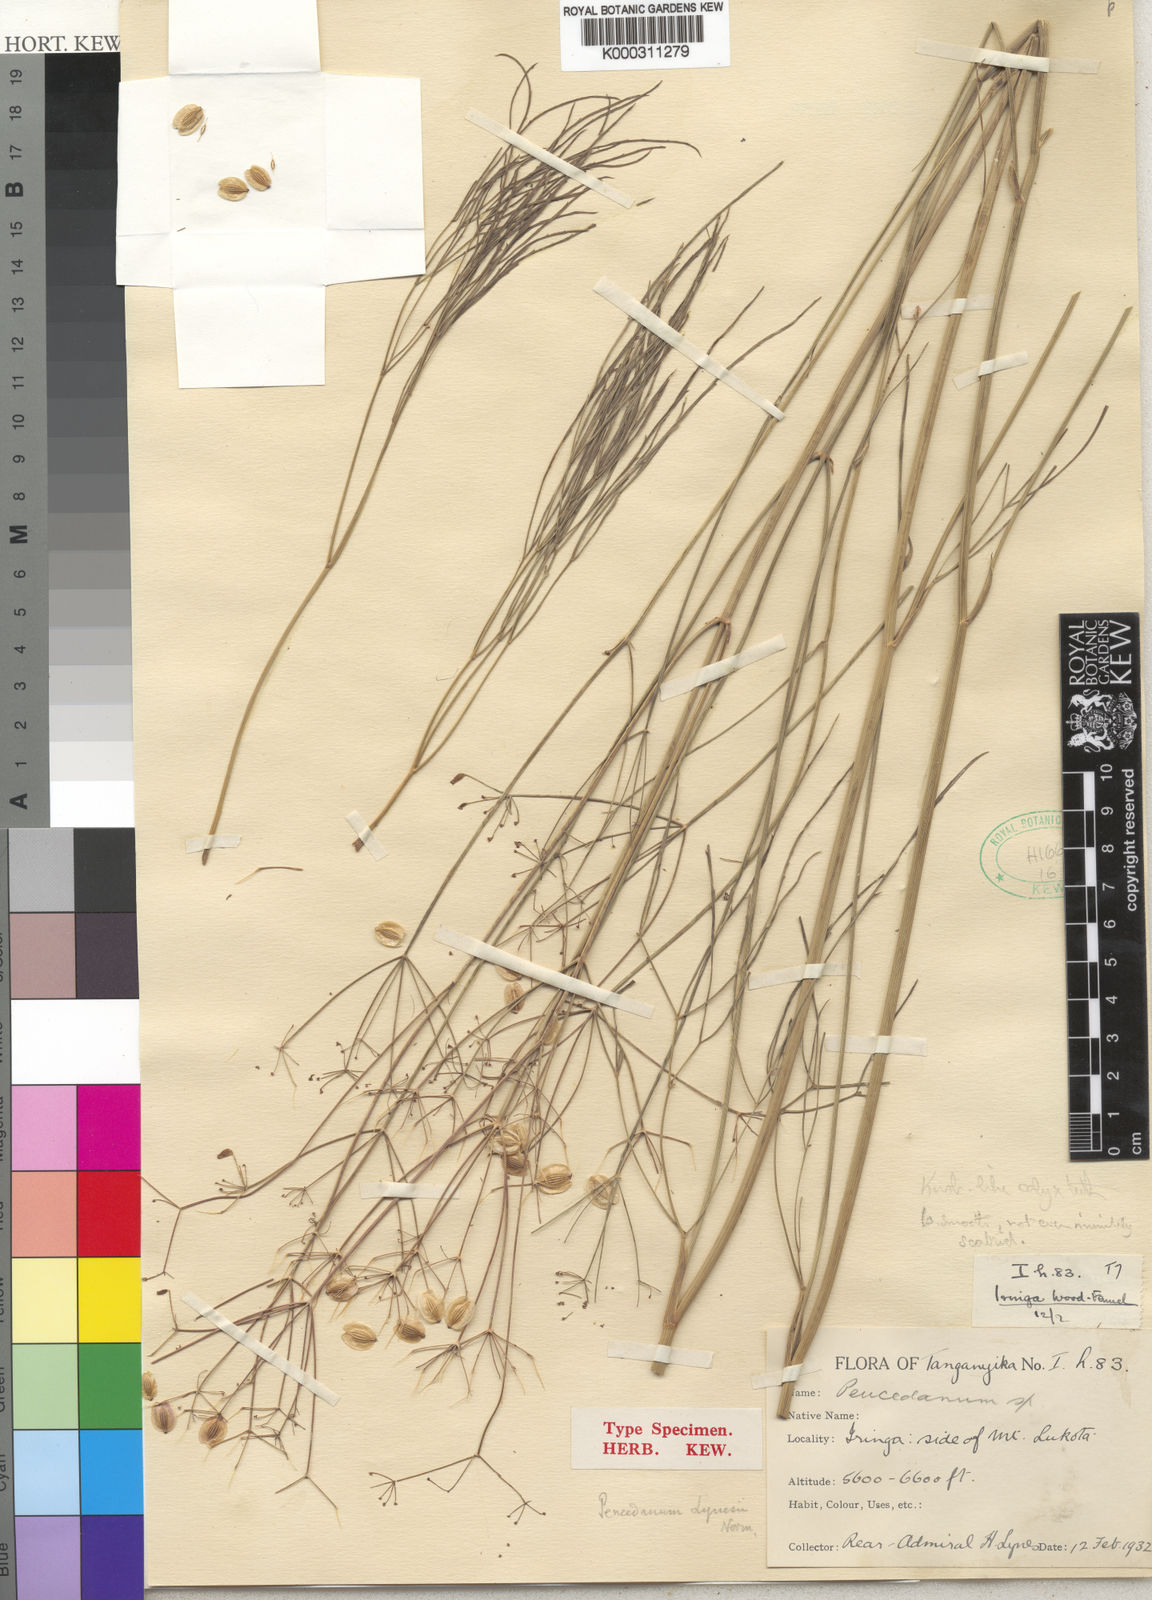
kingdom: Plantae
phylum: Tracheophyta
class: Magnoliopsida
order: Apiales
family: Apiaceae
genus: Afrosciadium
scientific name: Afrosciadium lynesii
